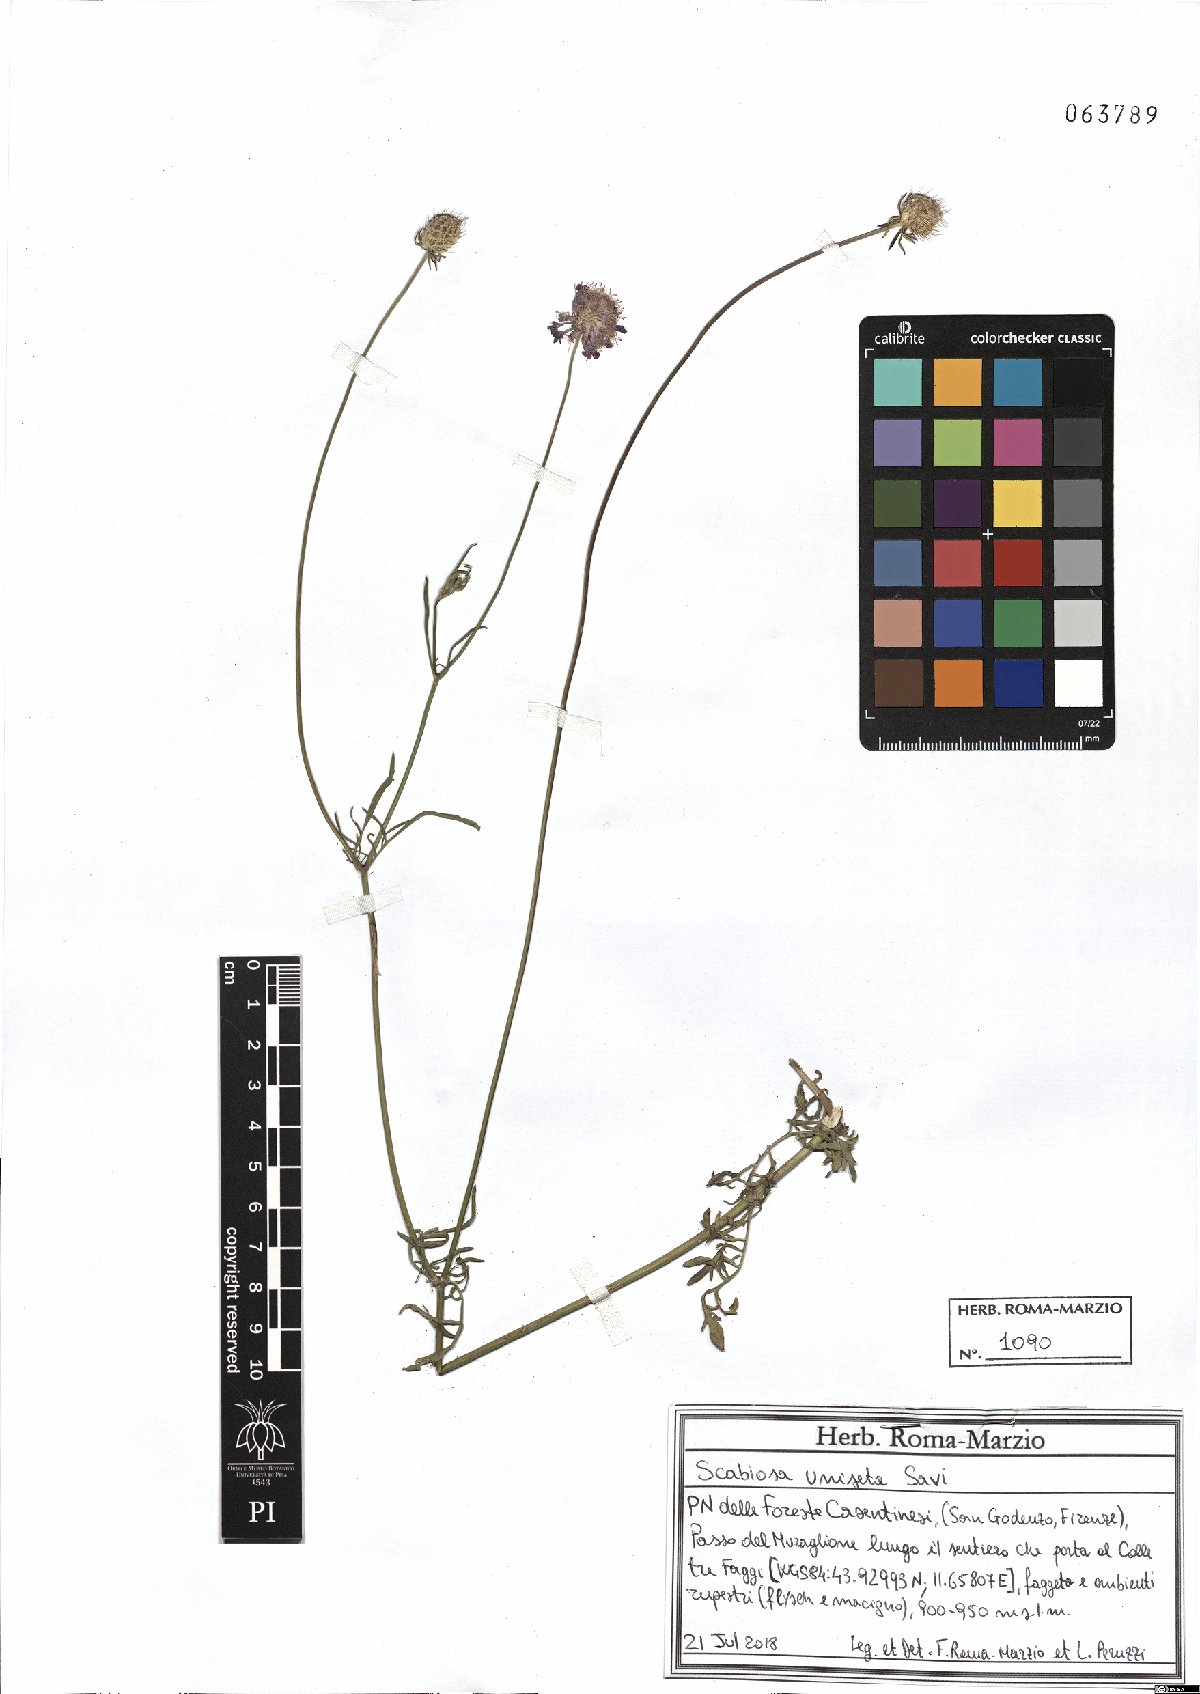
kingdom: Plantae
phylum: Tracheophyta
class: Magnoliopsida
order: Dipsacales
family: Caprifoliaceae
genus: Scabiosa
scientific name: Scabiosa columbaria
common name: Small scabious
